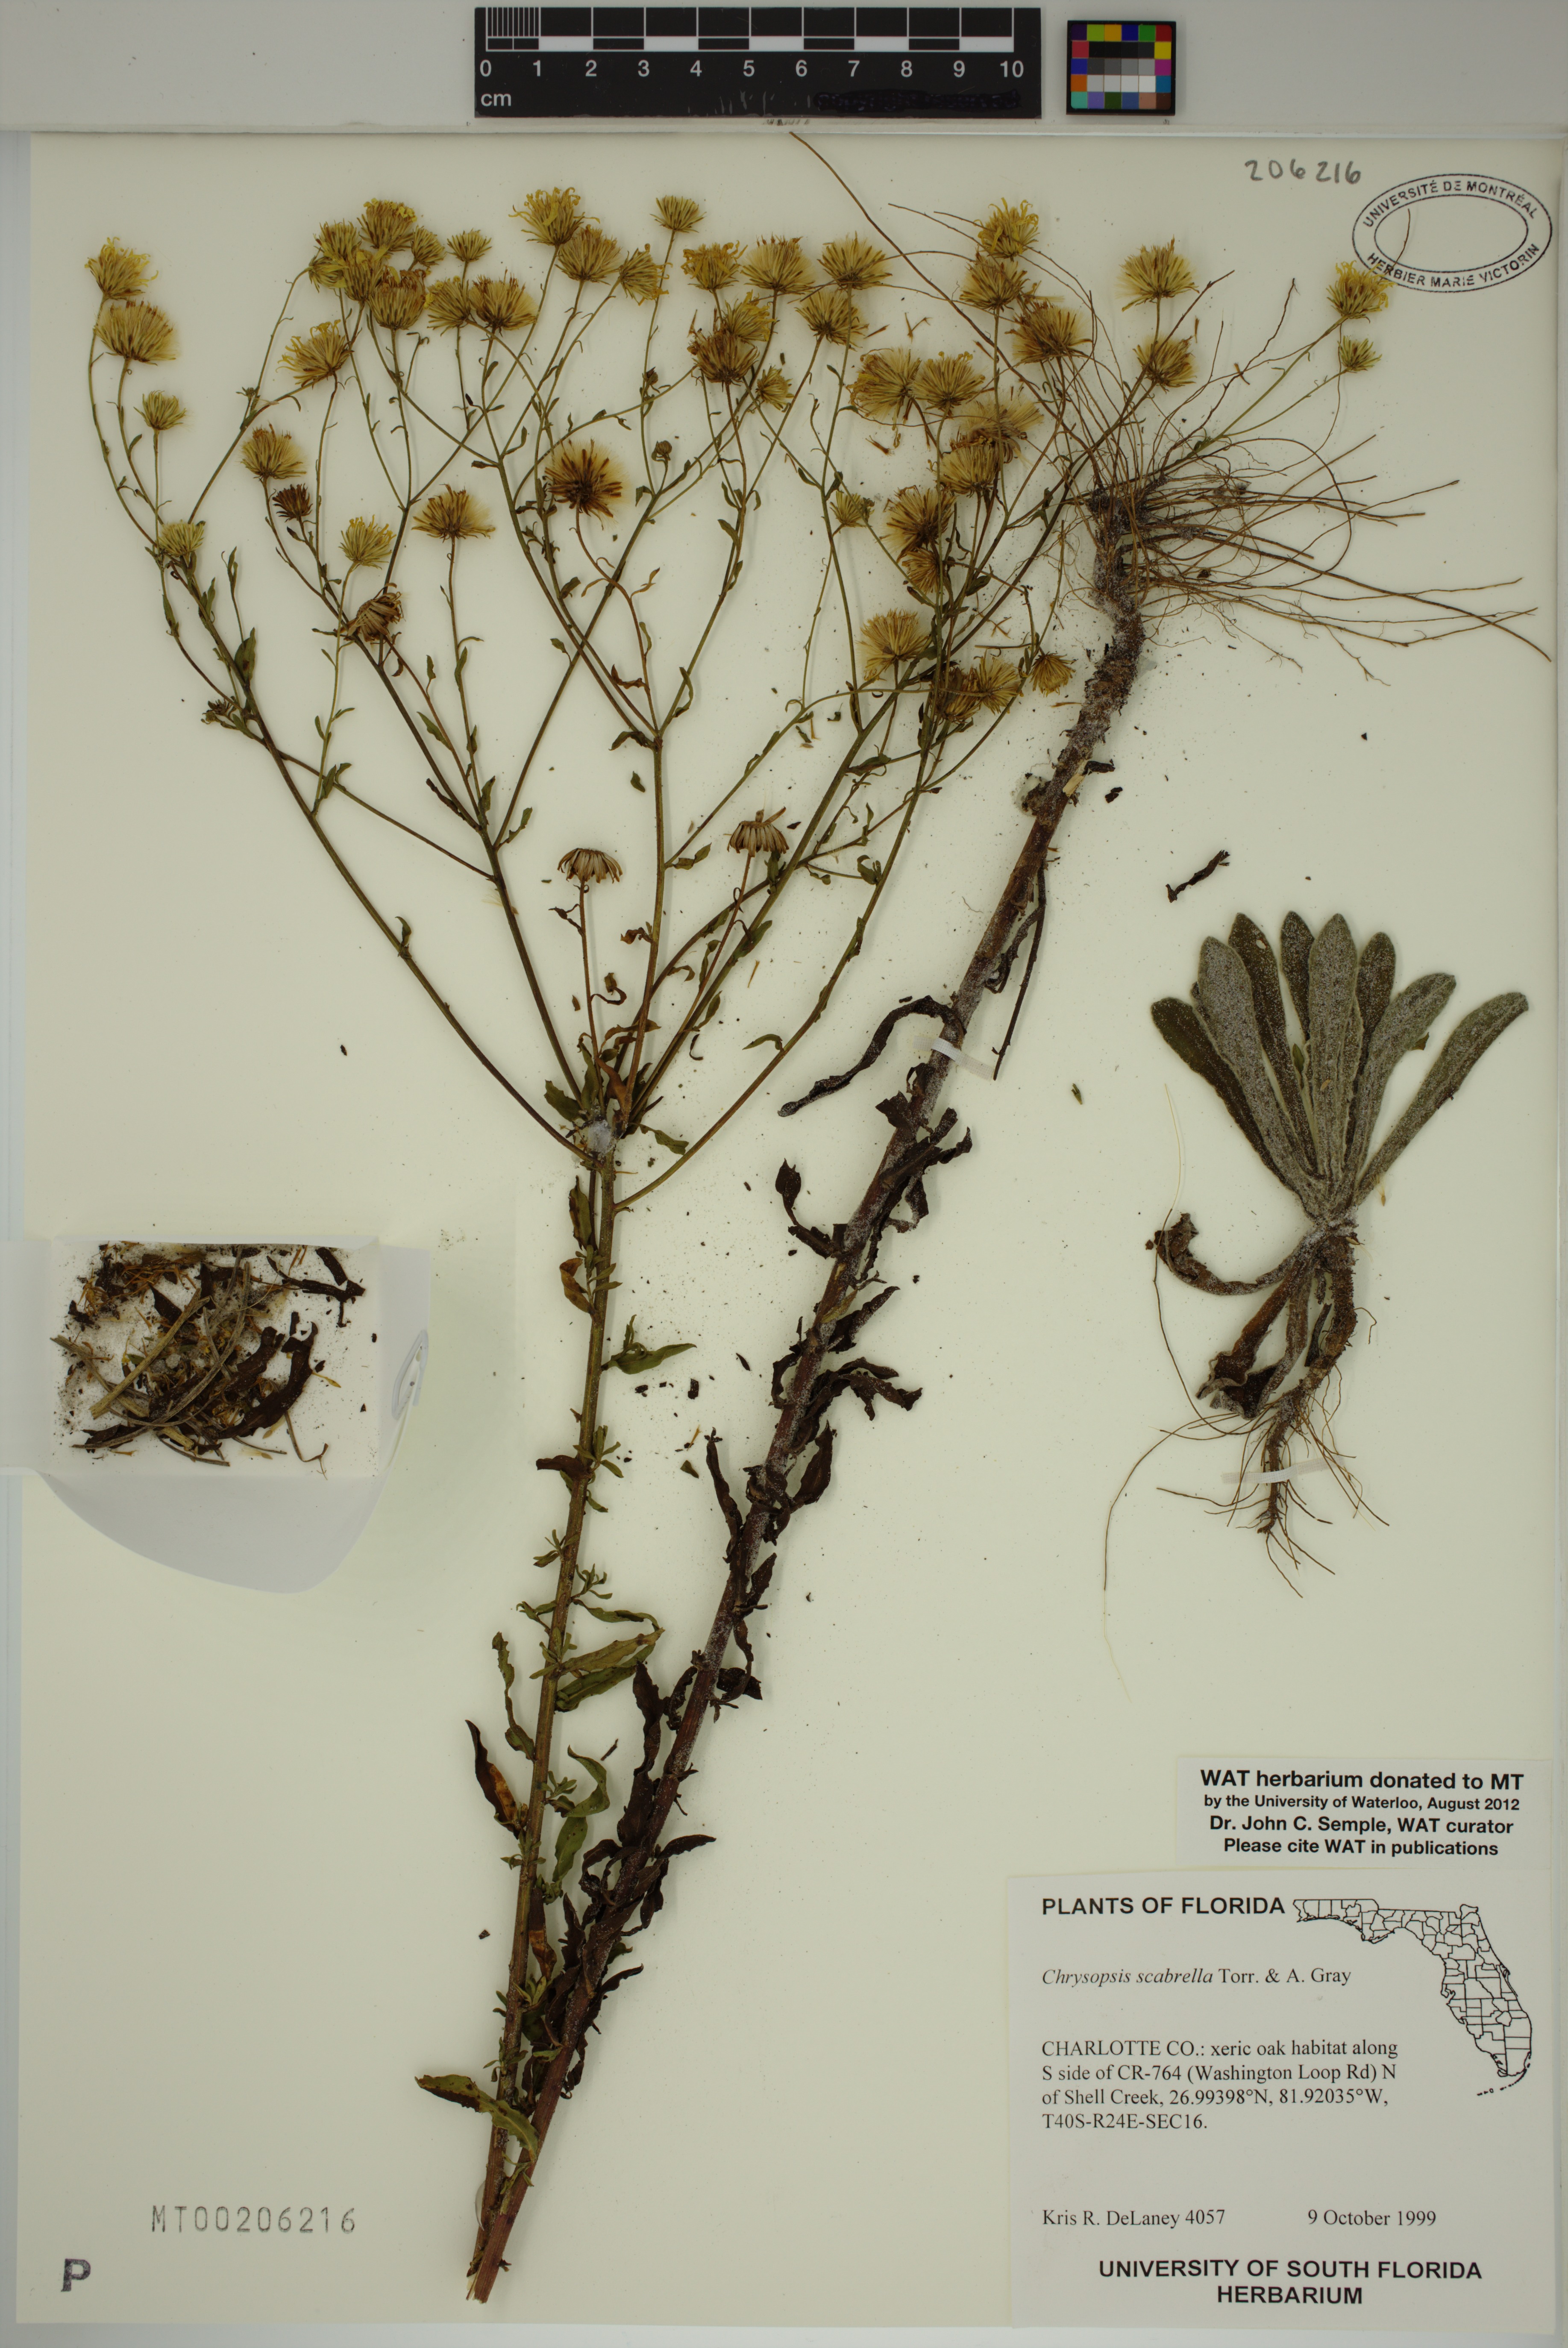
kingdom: Plantae
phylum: Tracheophyta
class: Magnoliopsida
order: Asterales
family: Asteraceae
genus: Chrysopsis
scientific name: Chrysopsis scabrella
